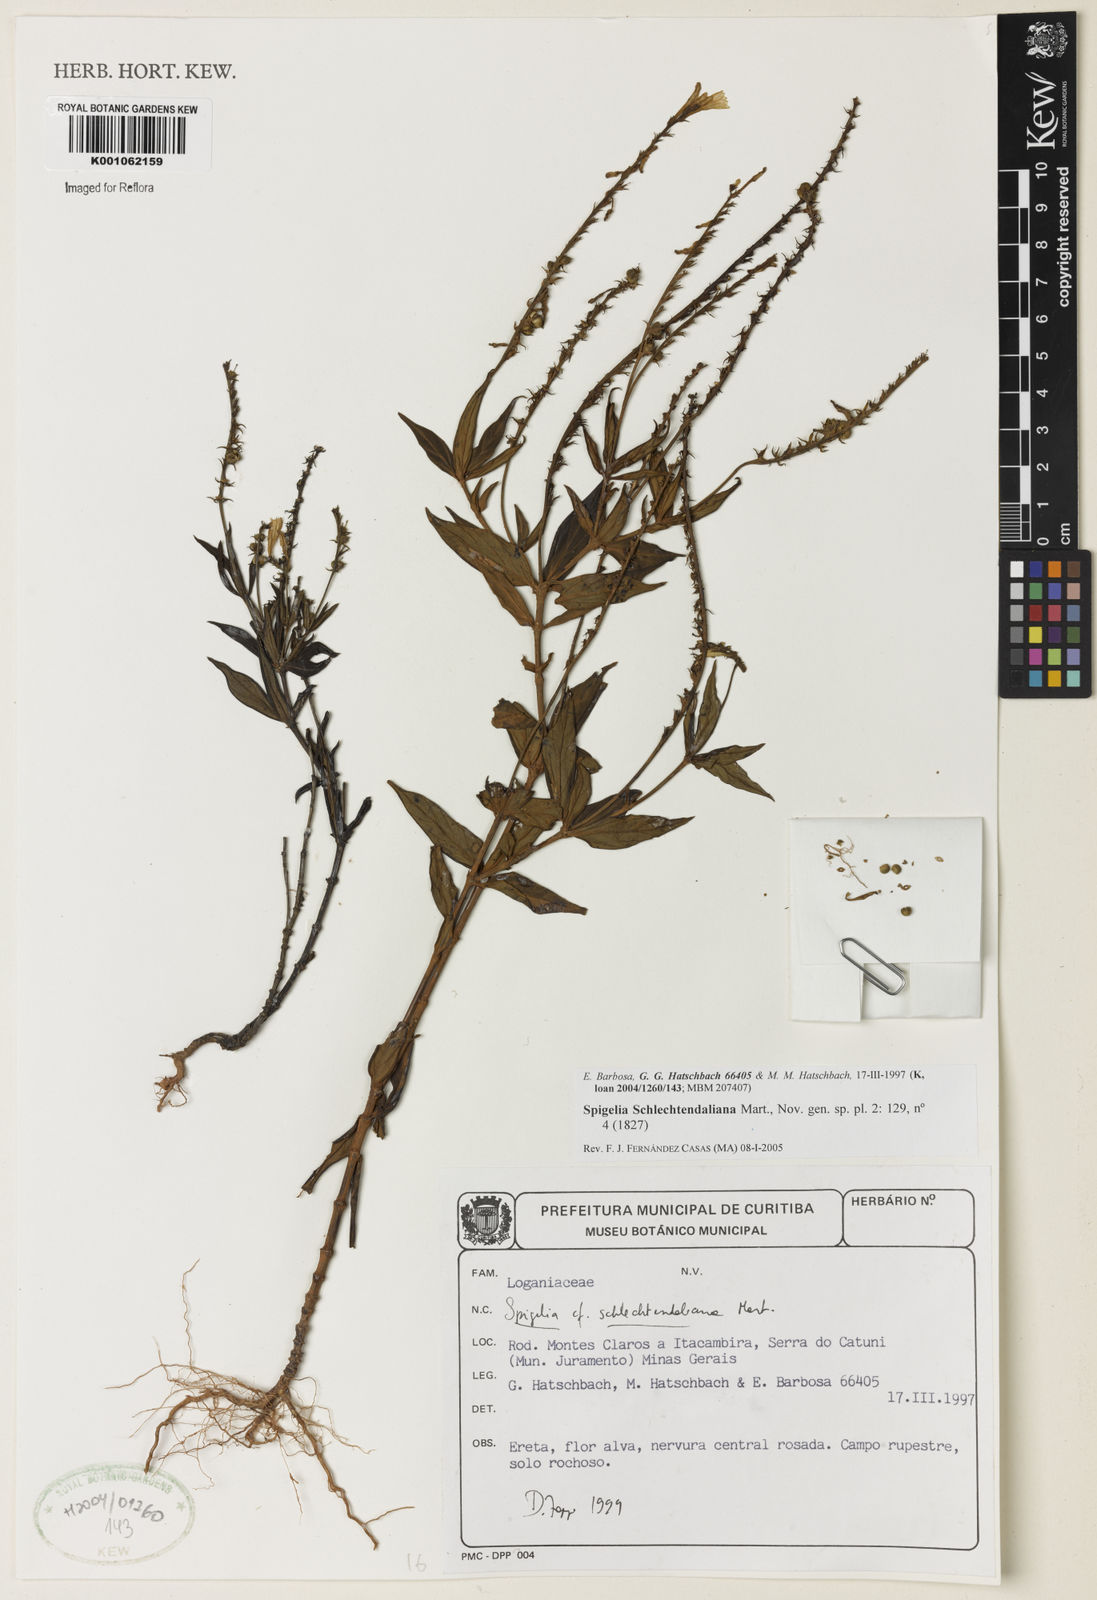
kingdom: Plantae
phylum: Tracheophyta
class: Magnoliopsida
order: Gentianales
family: Loganiaceae
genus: Spigelia
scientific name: Spigelia schlechtendaliana
